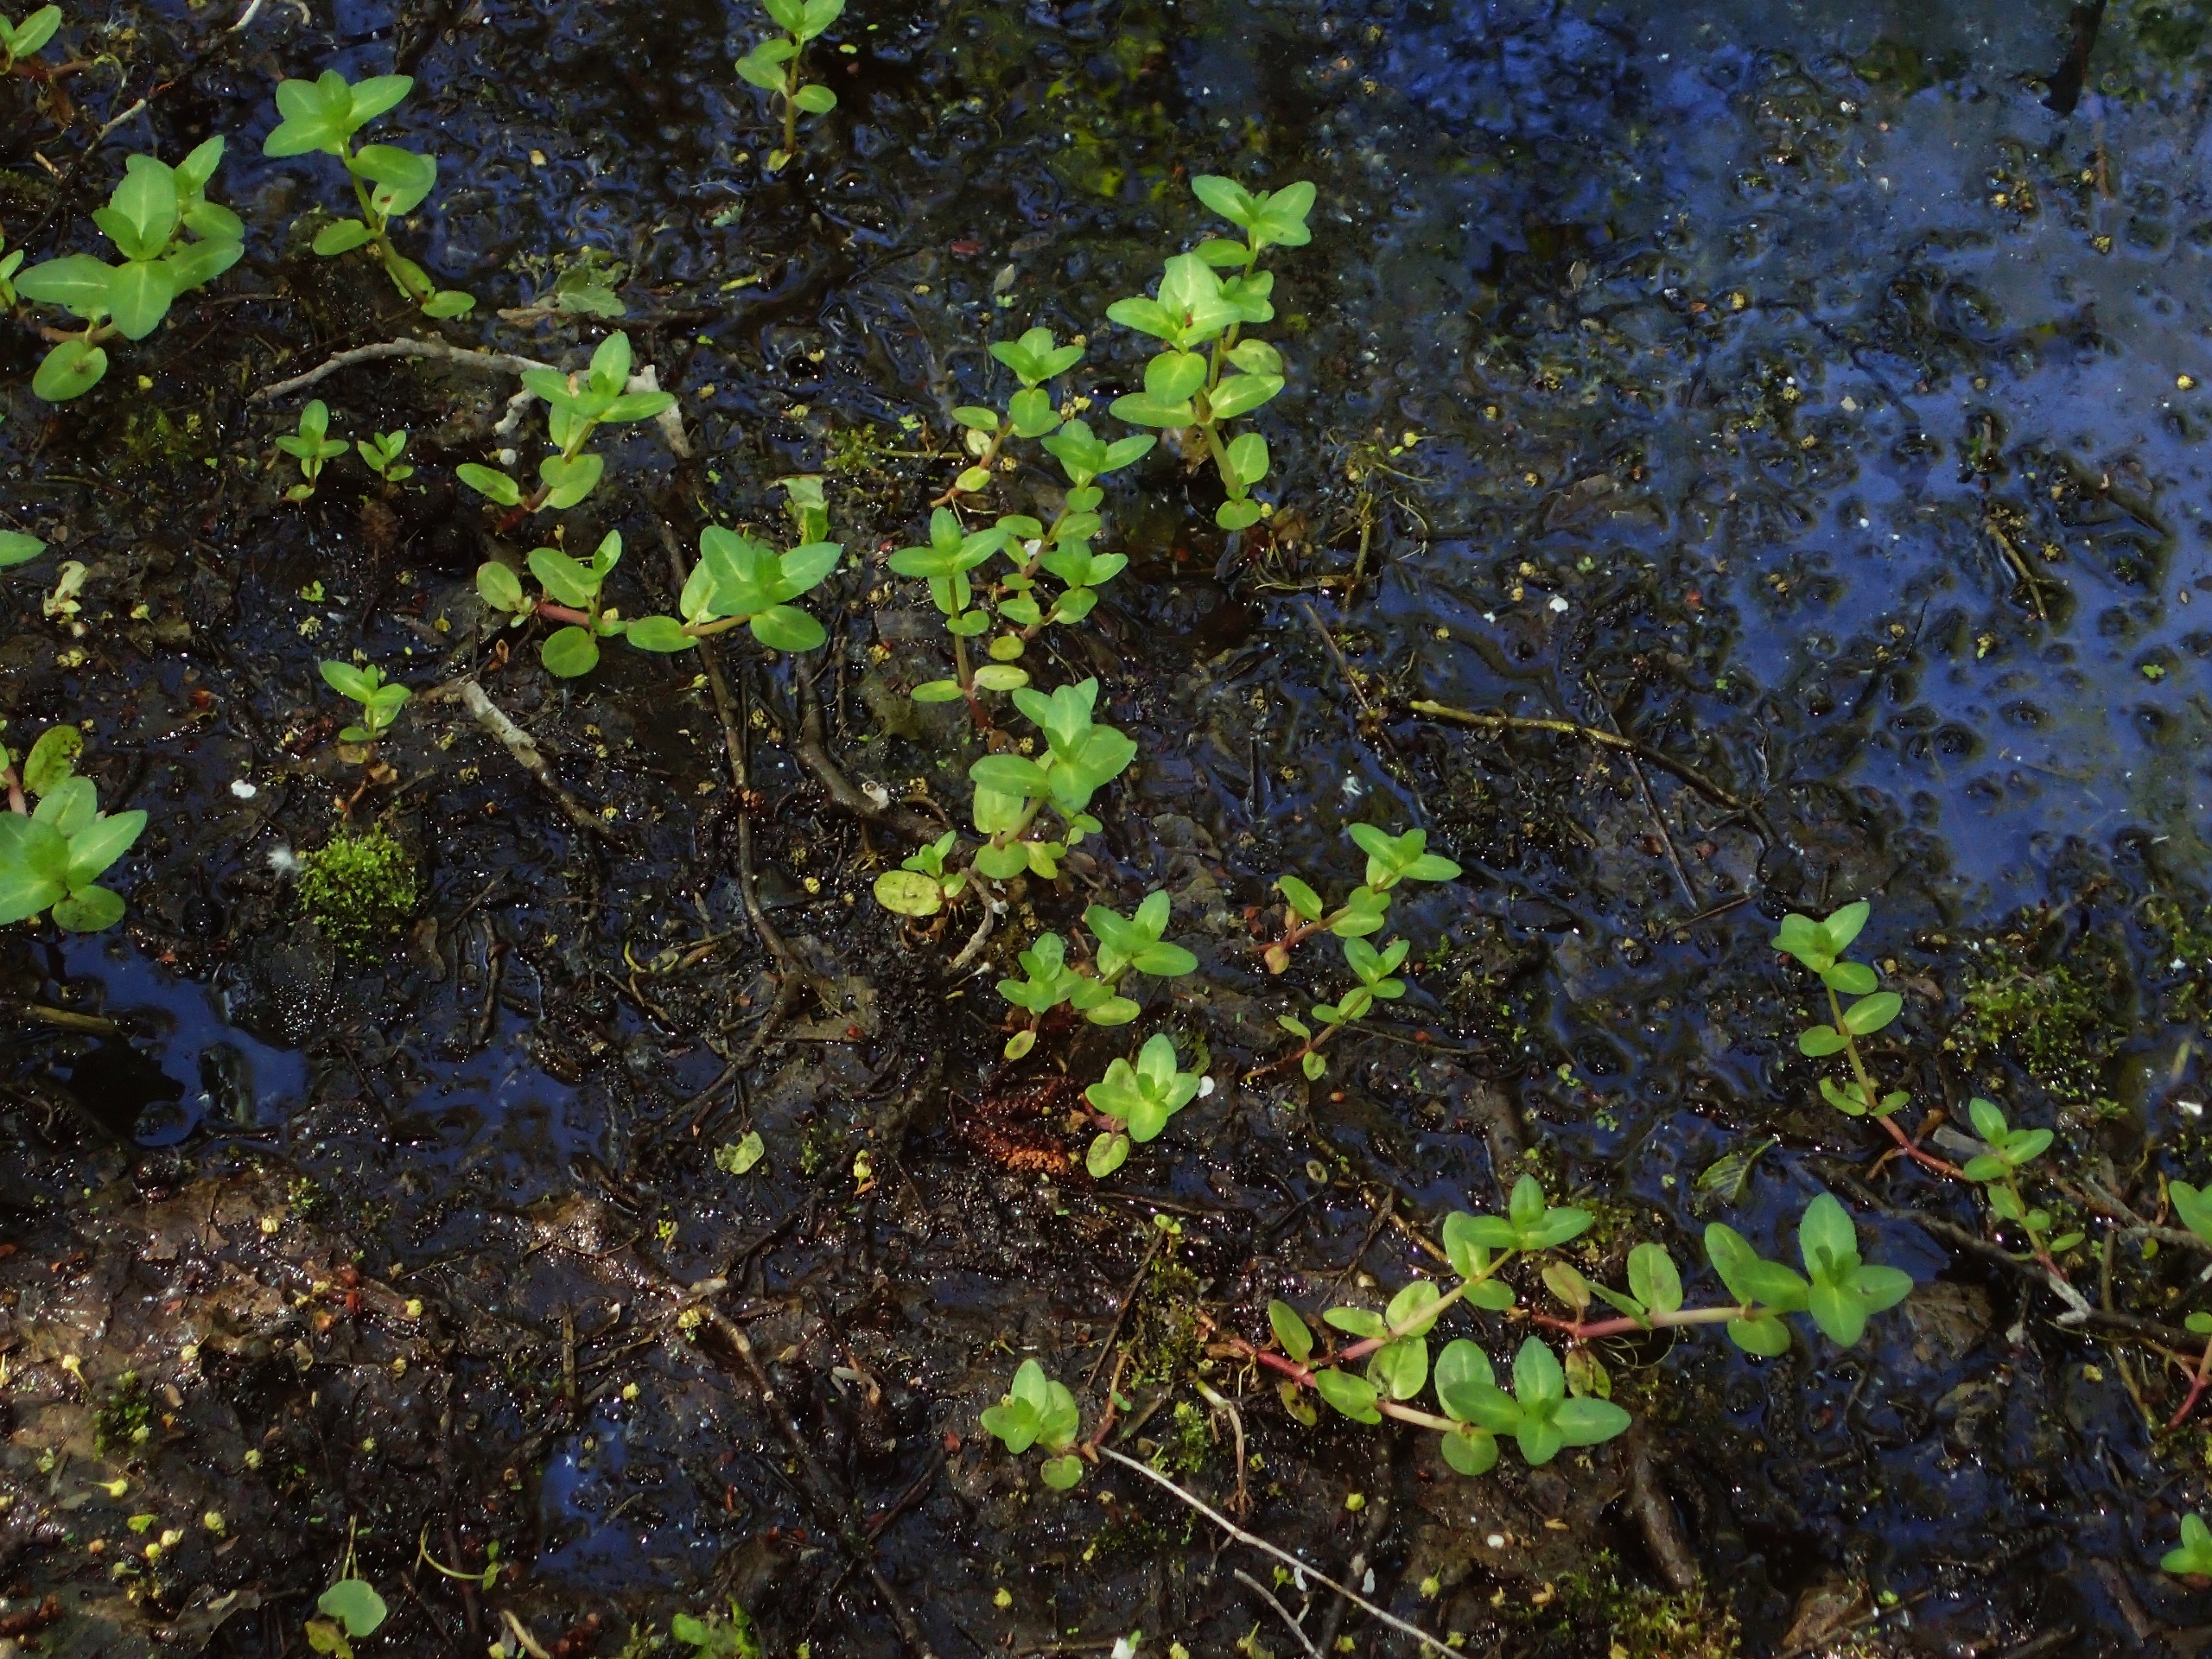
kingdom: Plantae
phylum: Tracheophyta
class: Magnoliopsida
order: Lamiales
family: Plantaginaceae
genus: Veronica
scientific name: Veronica beccabunga
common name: Tykbladet ærenpris
